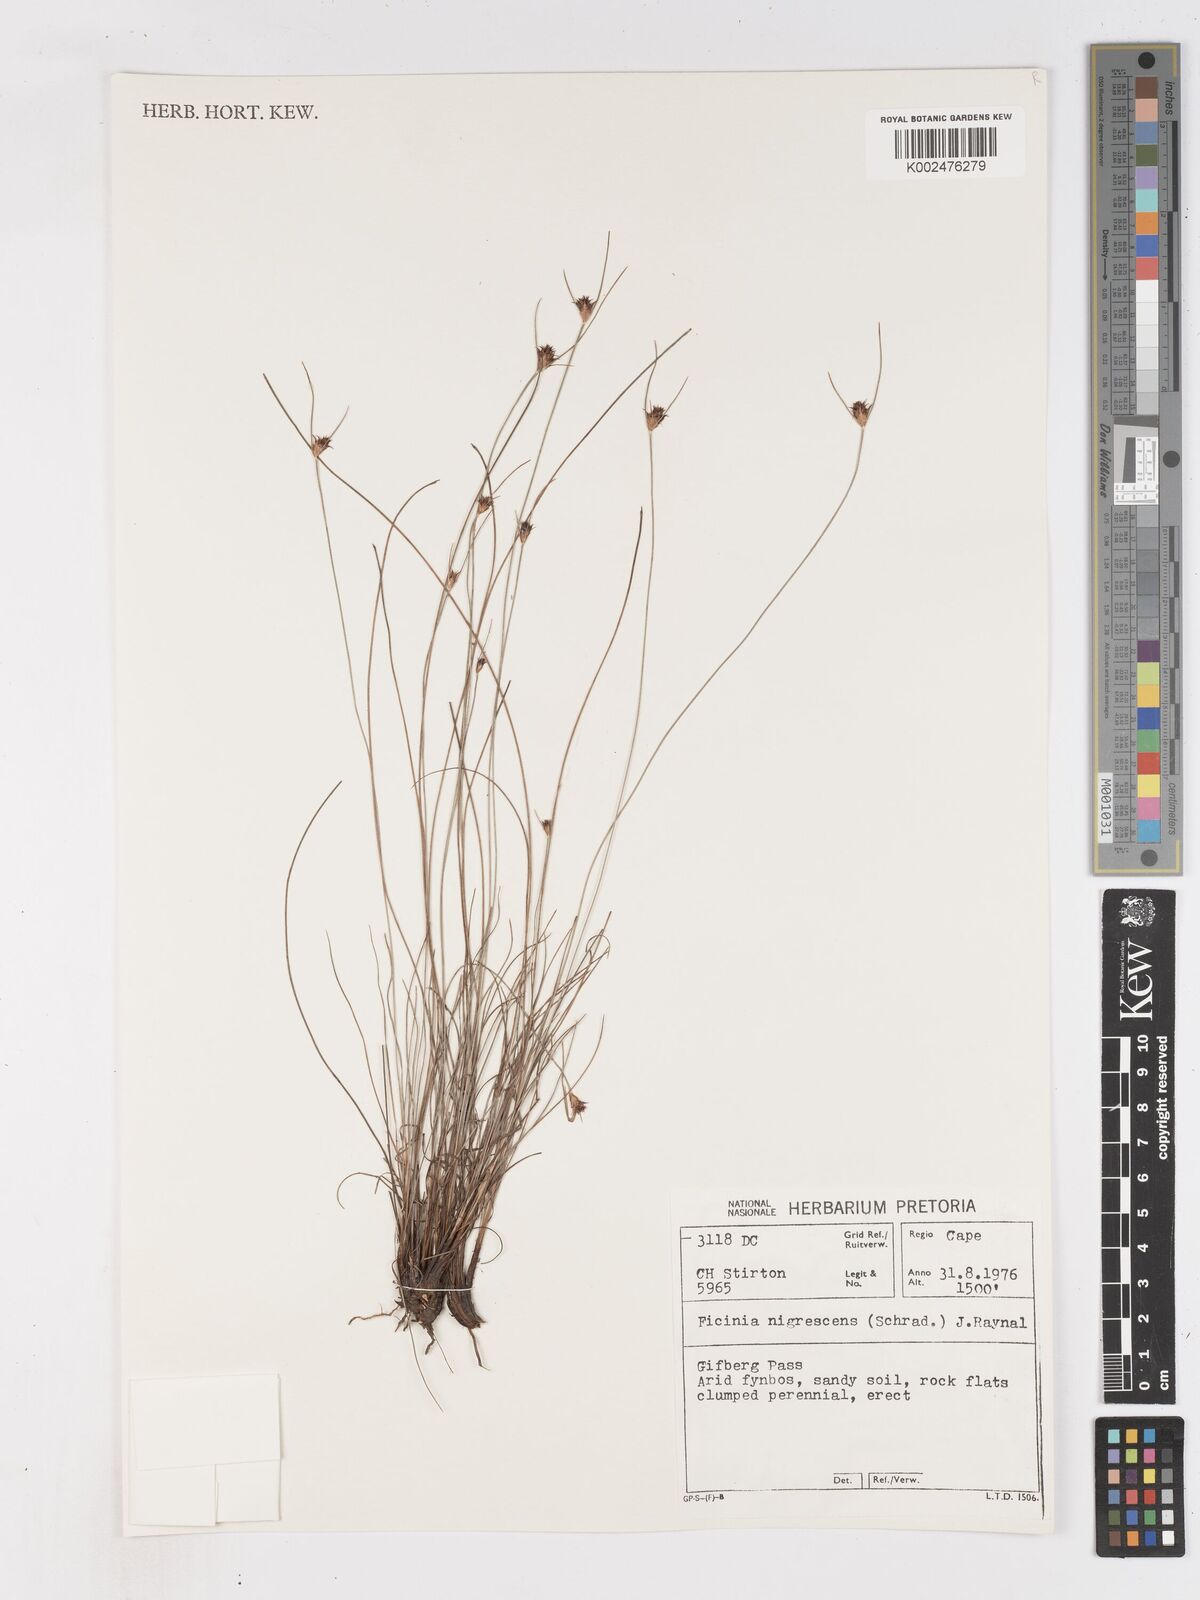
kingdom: Plantae
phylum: Tracheophyta
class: Liliopsida
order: Poales
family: Cyperaceae
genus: Ficinia
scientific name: Ficinia nigrescens
